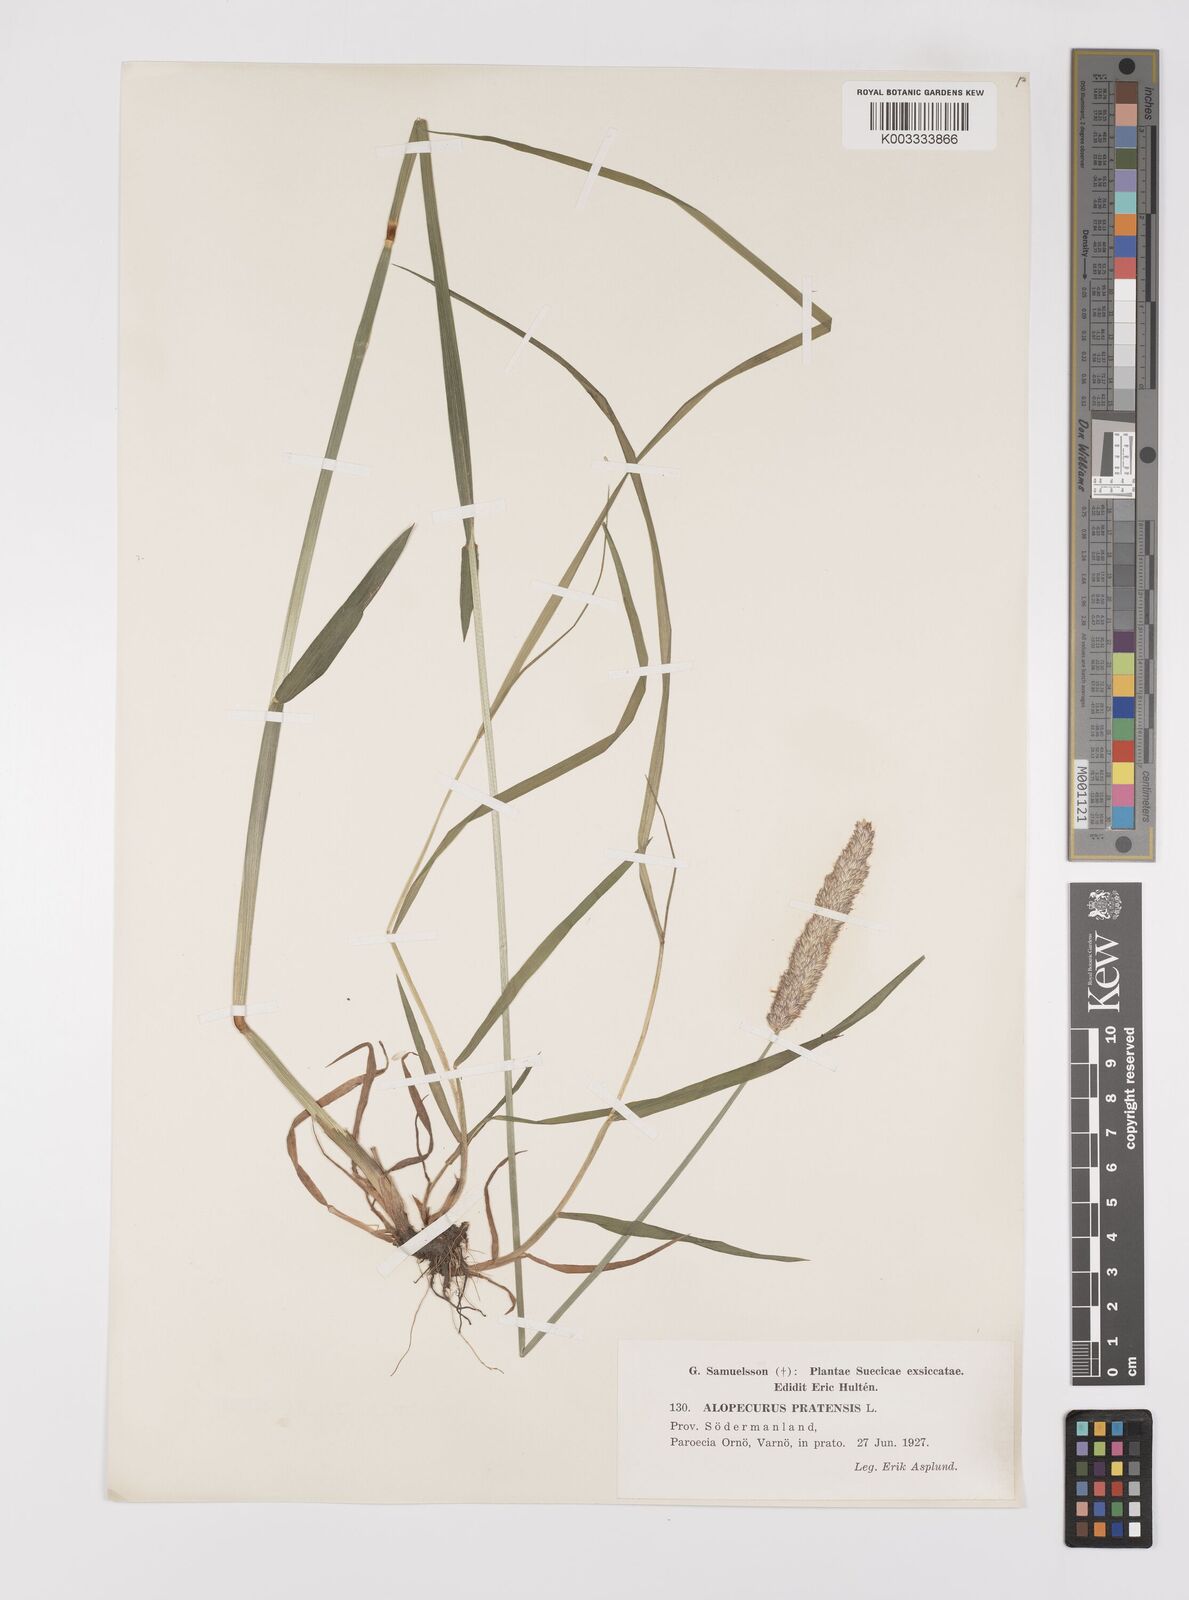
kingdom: Plantae
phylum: Tracheophyta
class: Liliopsida
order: Poales
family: Poaceae
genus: Alopecurus
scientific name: Alopecurus pratensis
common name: Meadow foxtail
